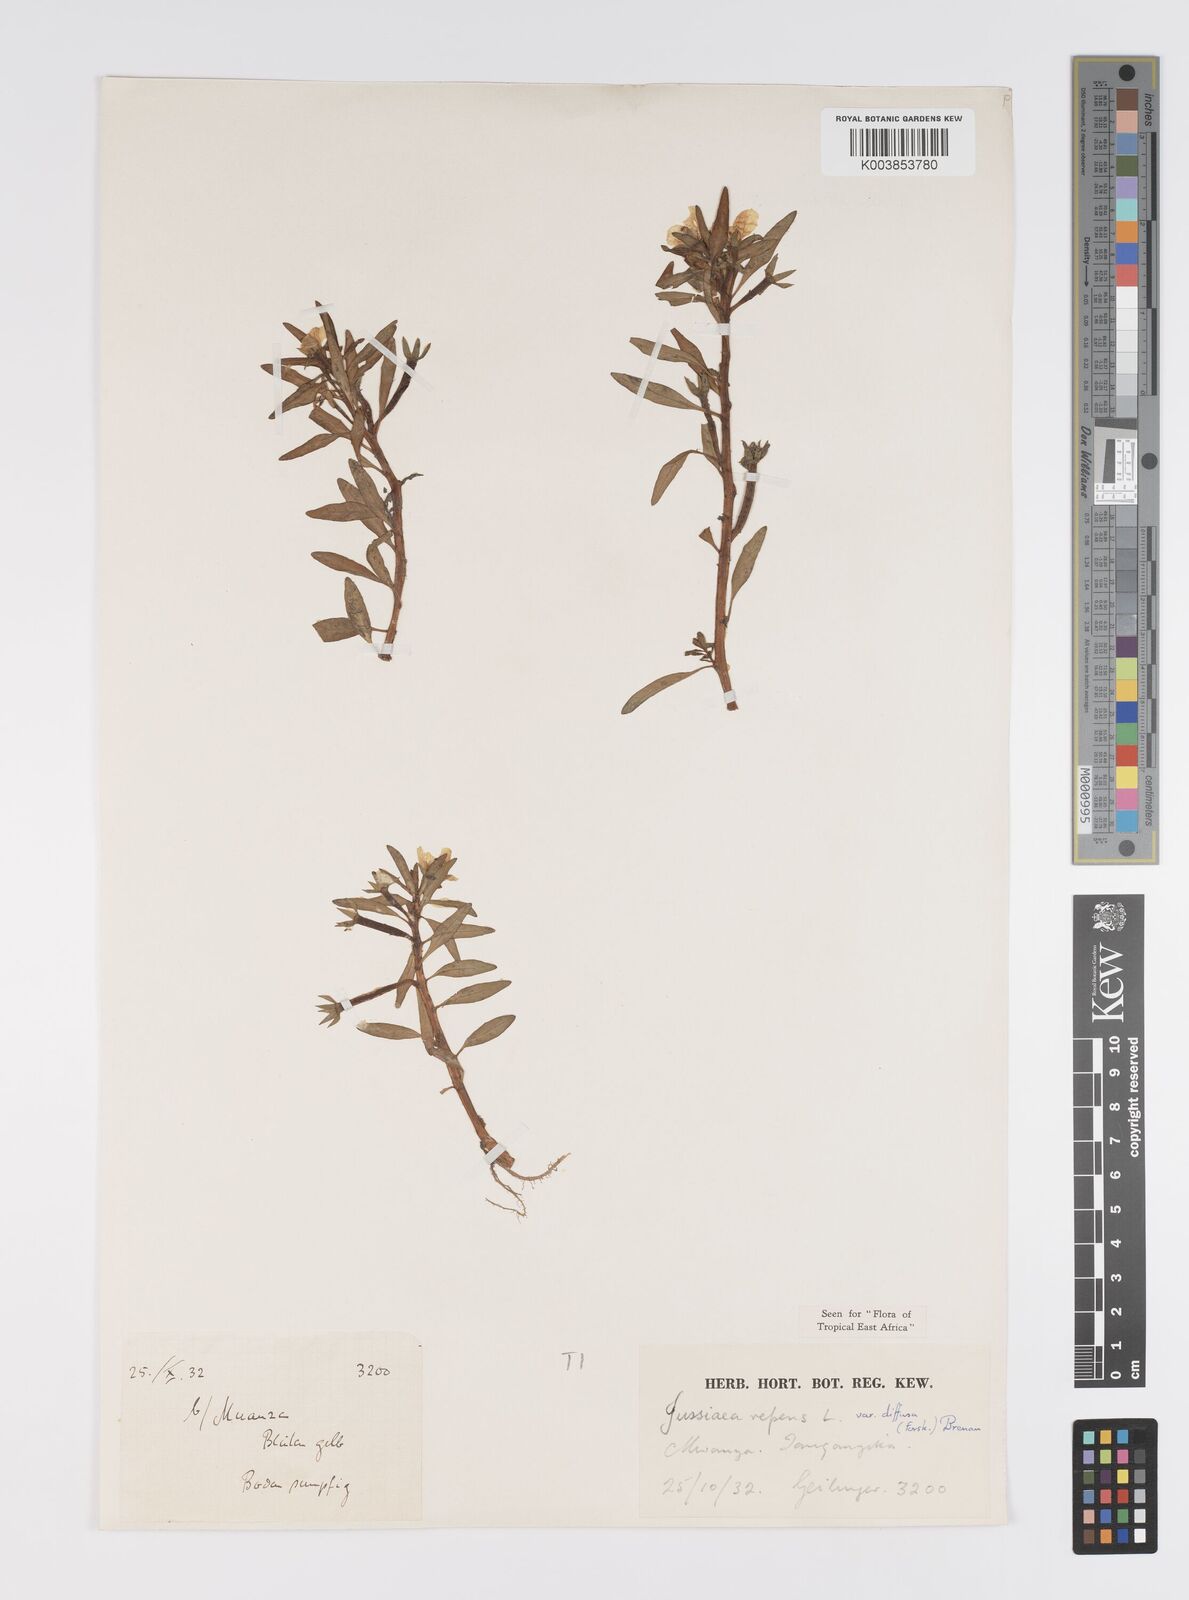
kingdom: Plantae
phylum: Tracheophyta
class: Magnoliopsida
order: Myrtales
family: Onagraceae
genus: Ludwigia
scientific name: Ludwigia repens
